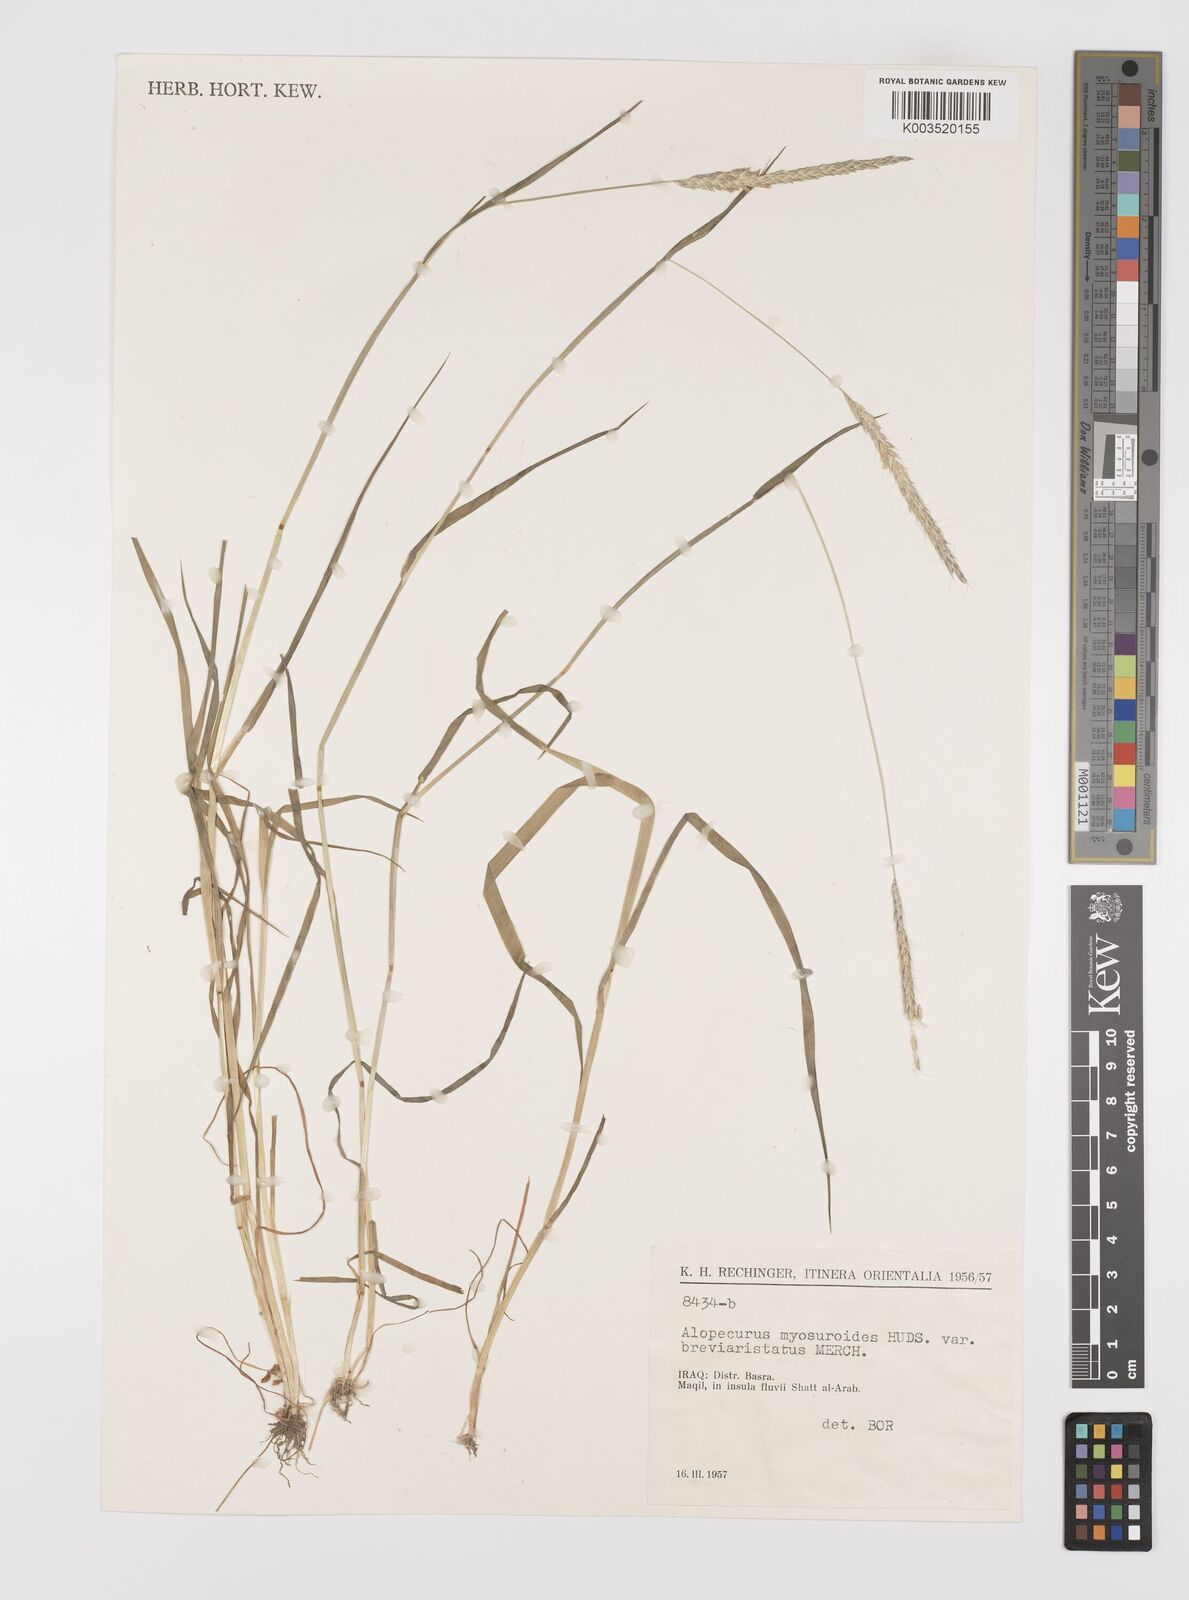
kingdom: Plantae
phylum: Tracheophyta
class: Liliopsida
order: Poales
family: Poaceae
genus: Alopecurus
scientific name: Alopecurus myosuroides
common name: Black-grass
